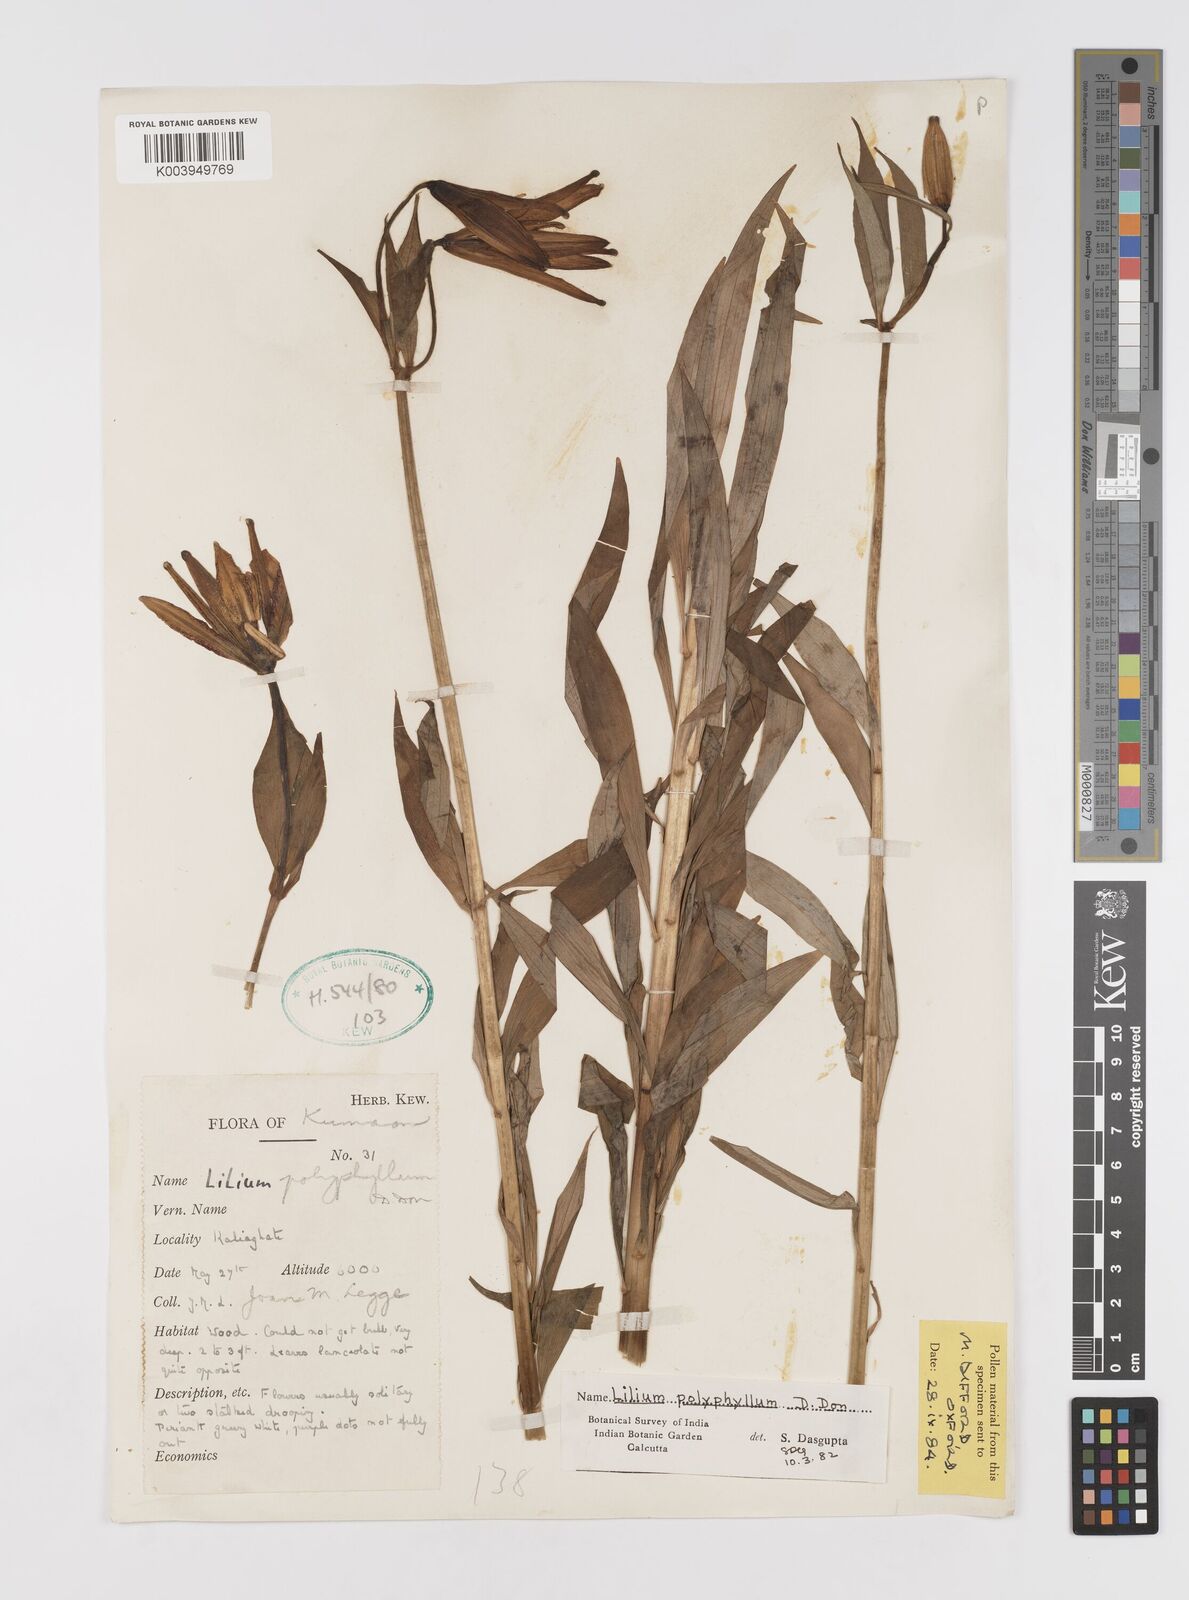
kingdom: Plantae
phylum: Tracheophyta
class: Liliopsida
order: Liliales
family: Liliaceae
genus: Lilium
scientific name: Lilium polyphyllum
